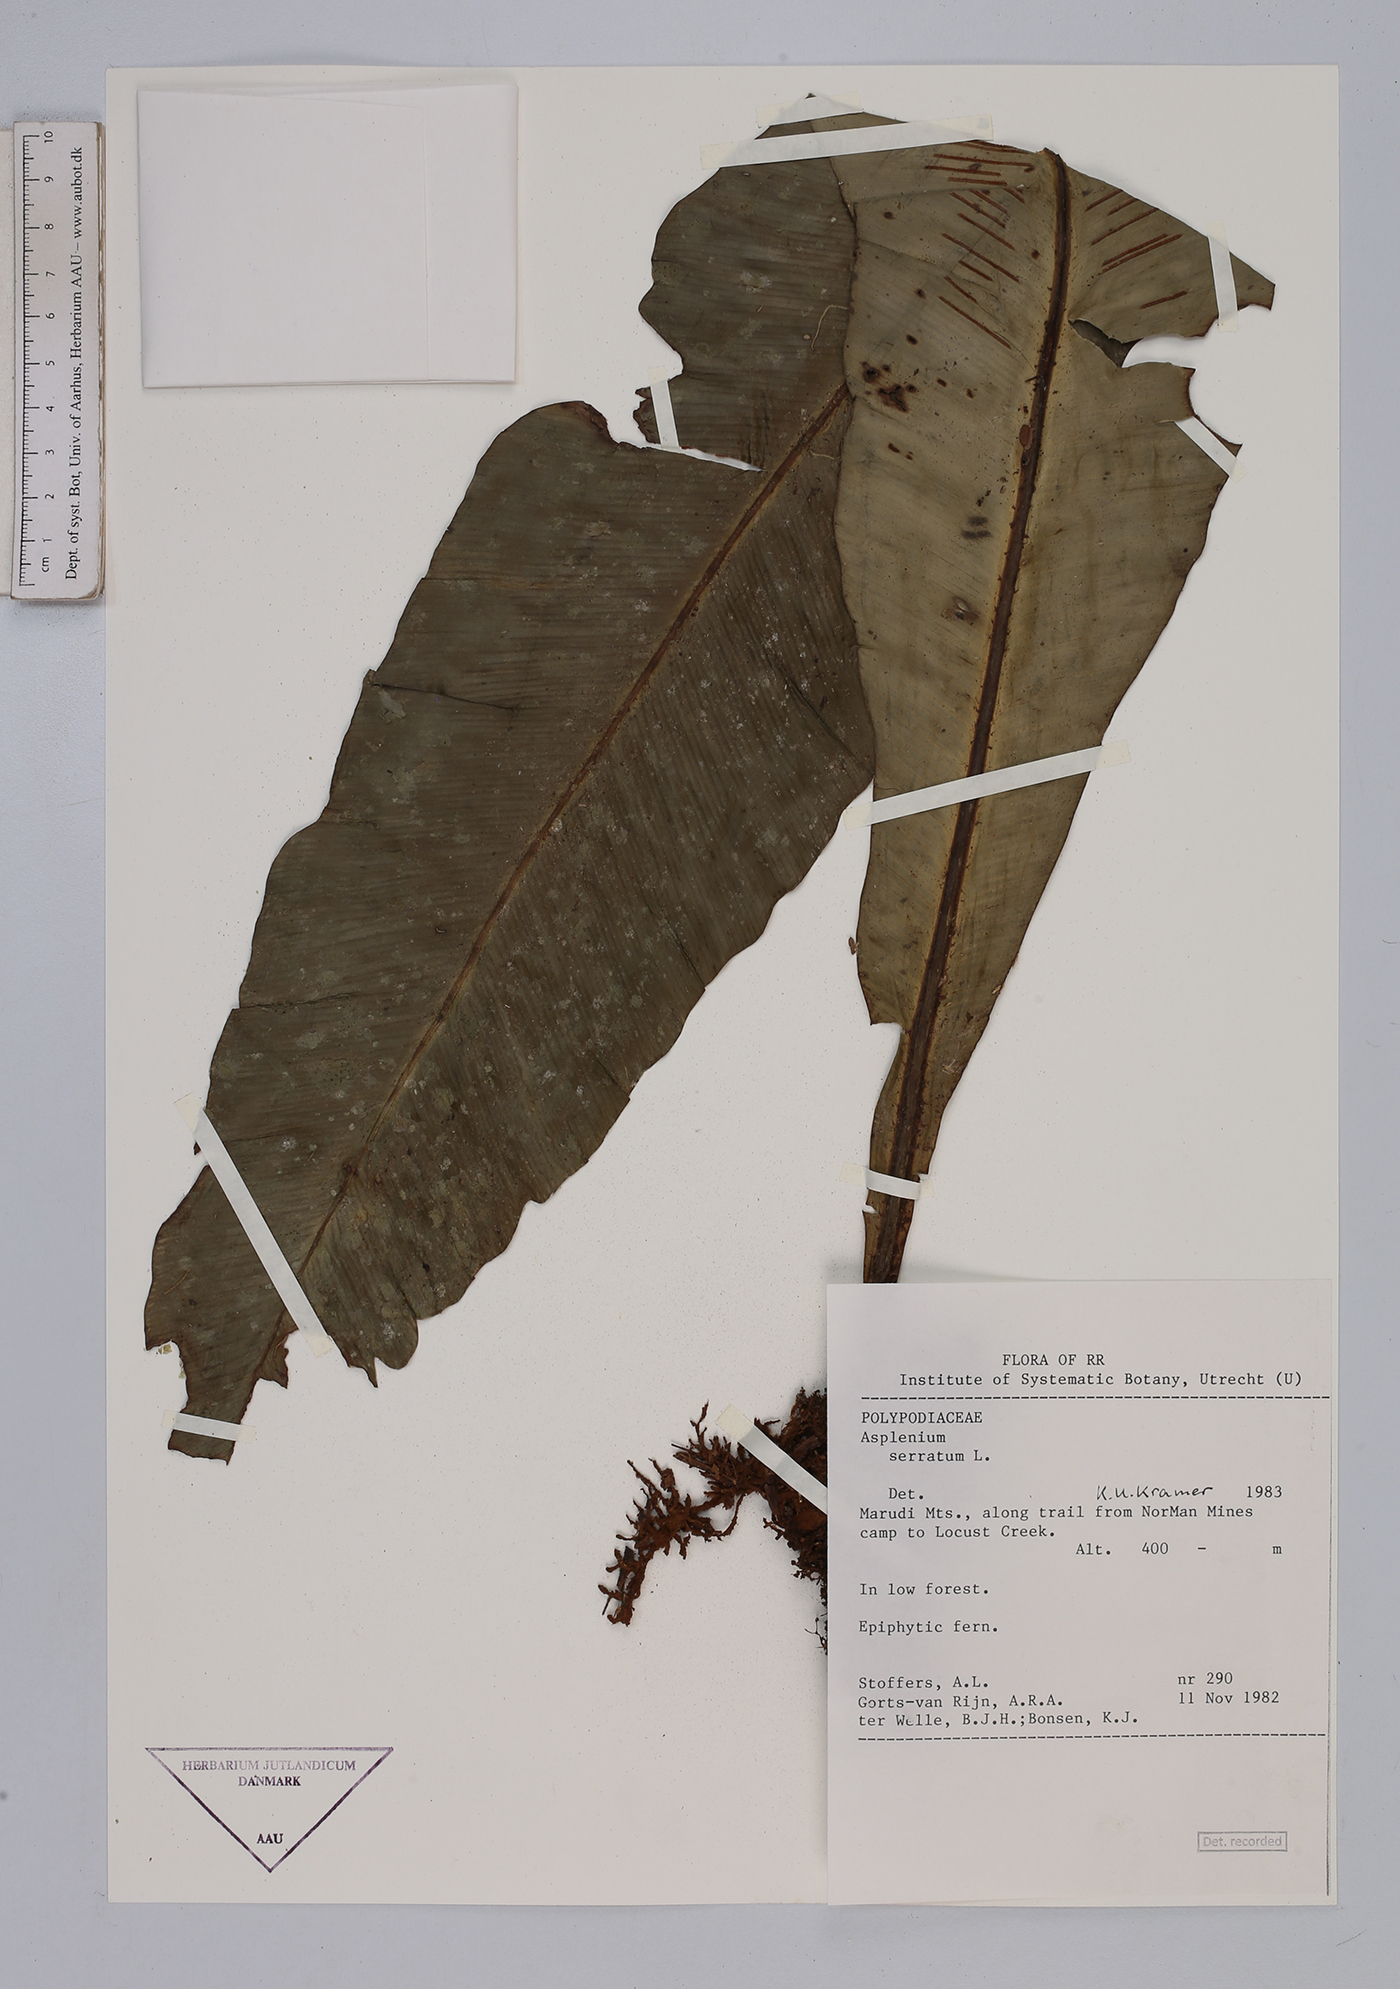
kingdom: Plantae
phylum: Tracheophyta
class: Polypodiopsida
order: Polypodiales
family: Aspleniaceae
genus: Asplenium
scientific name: Asplenium serratum
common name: Wild birdnest fern
